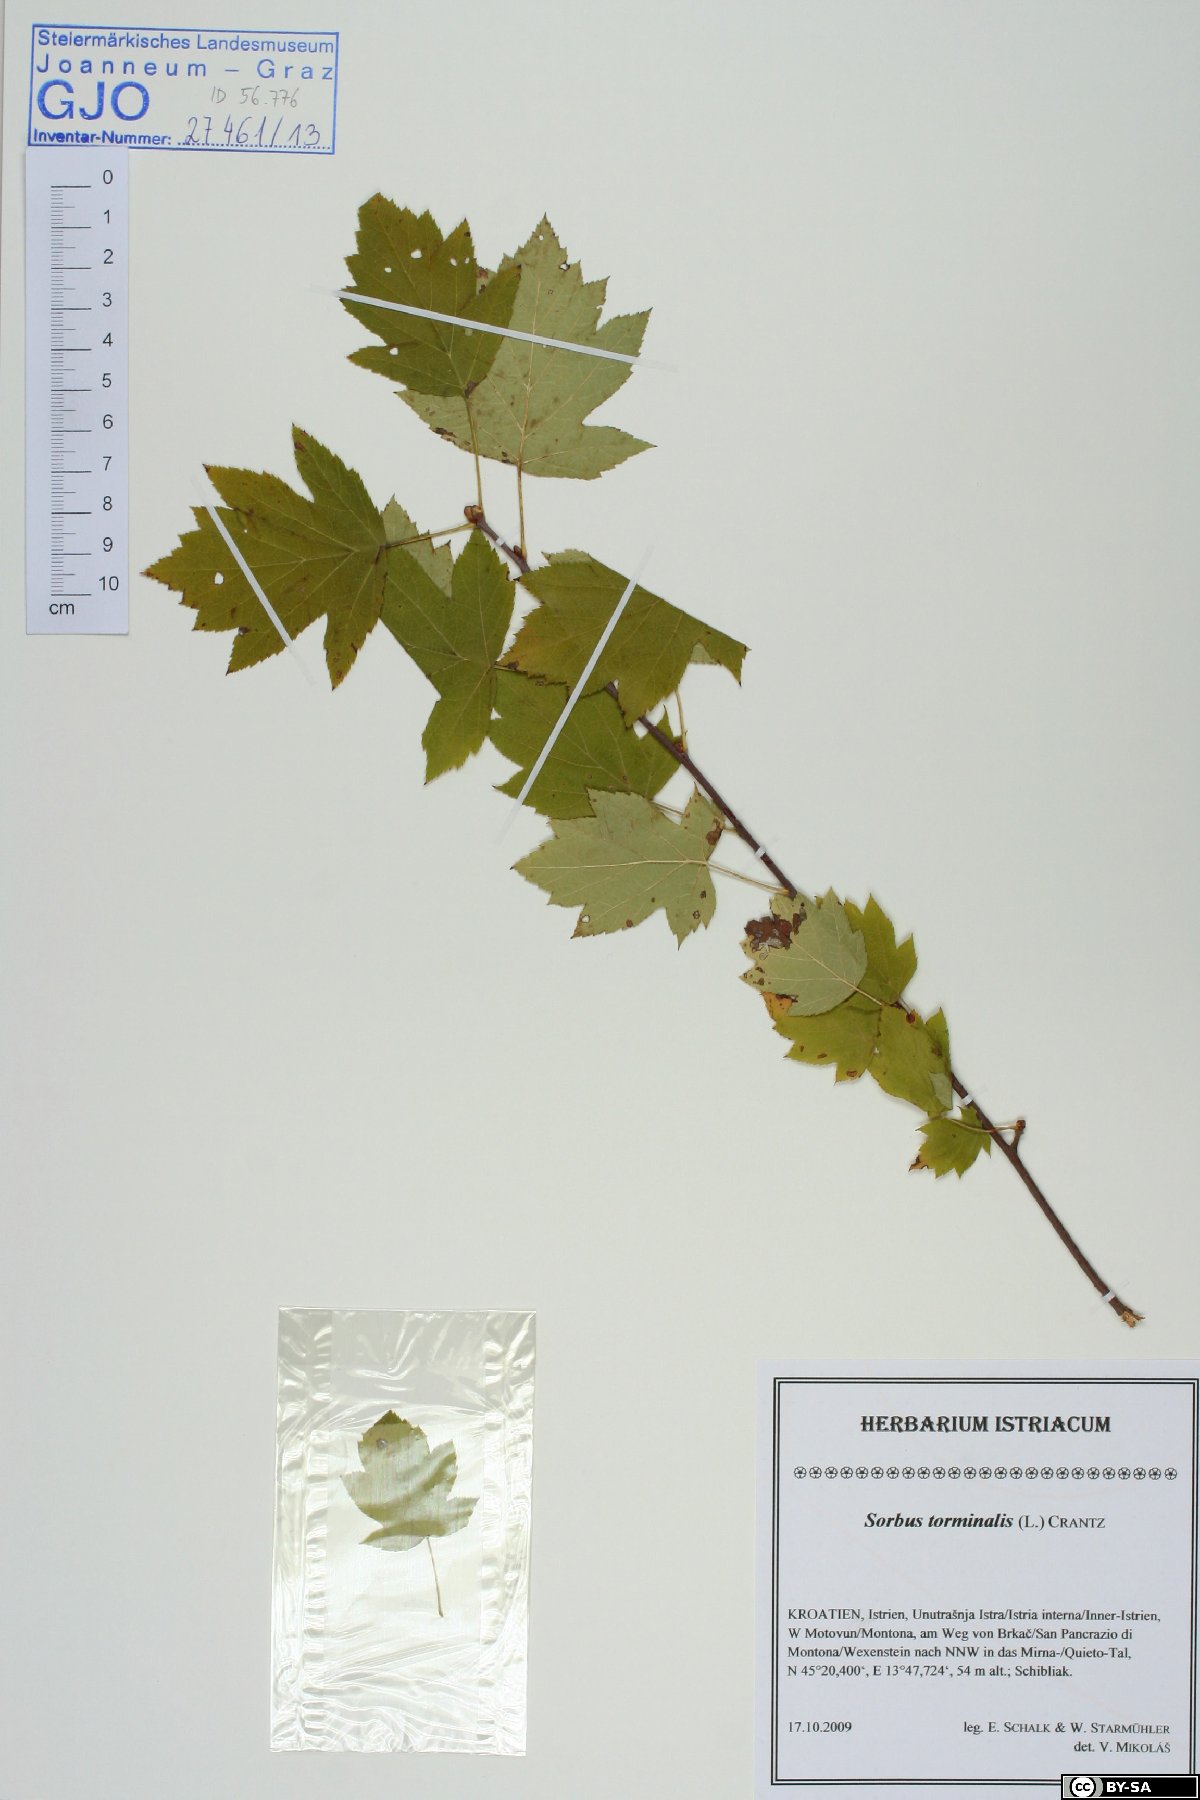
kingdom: Plantae
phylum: Tracheophyta
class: Magnoliopsida
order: Rosales
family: Rosaceae
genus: Torminalis
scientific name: Torminalis glaberrima
